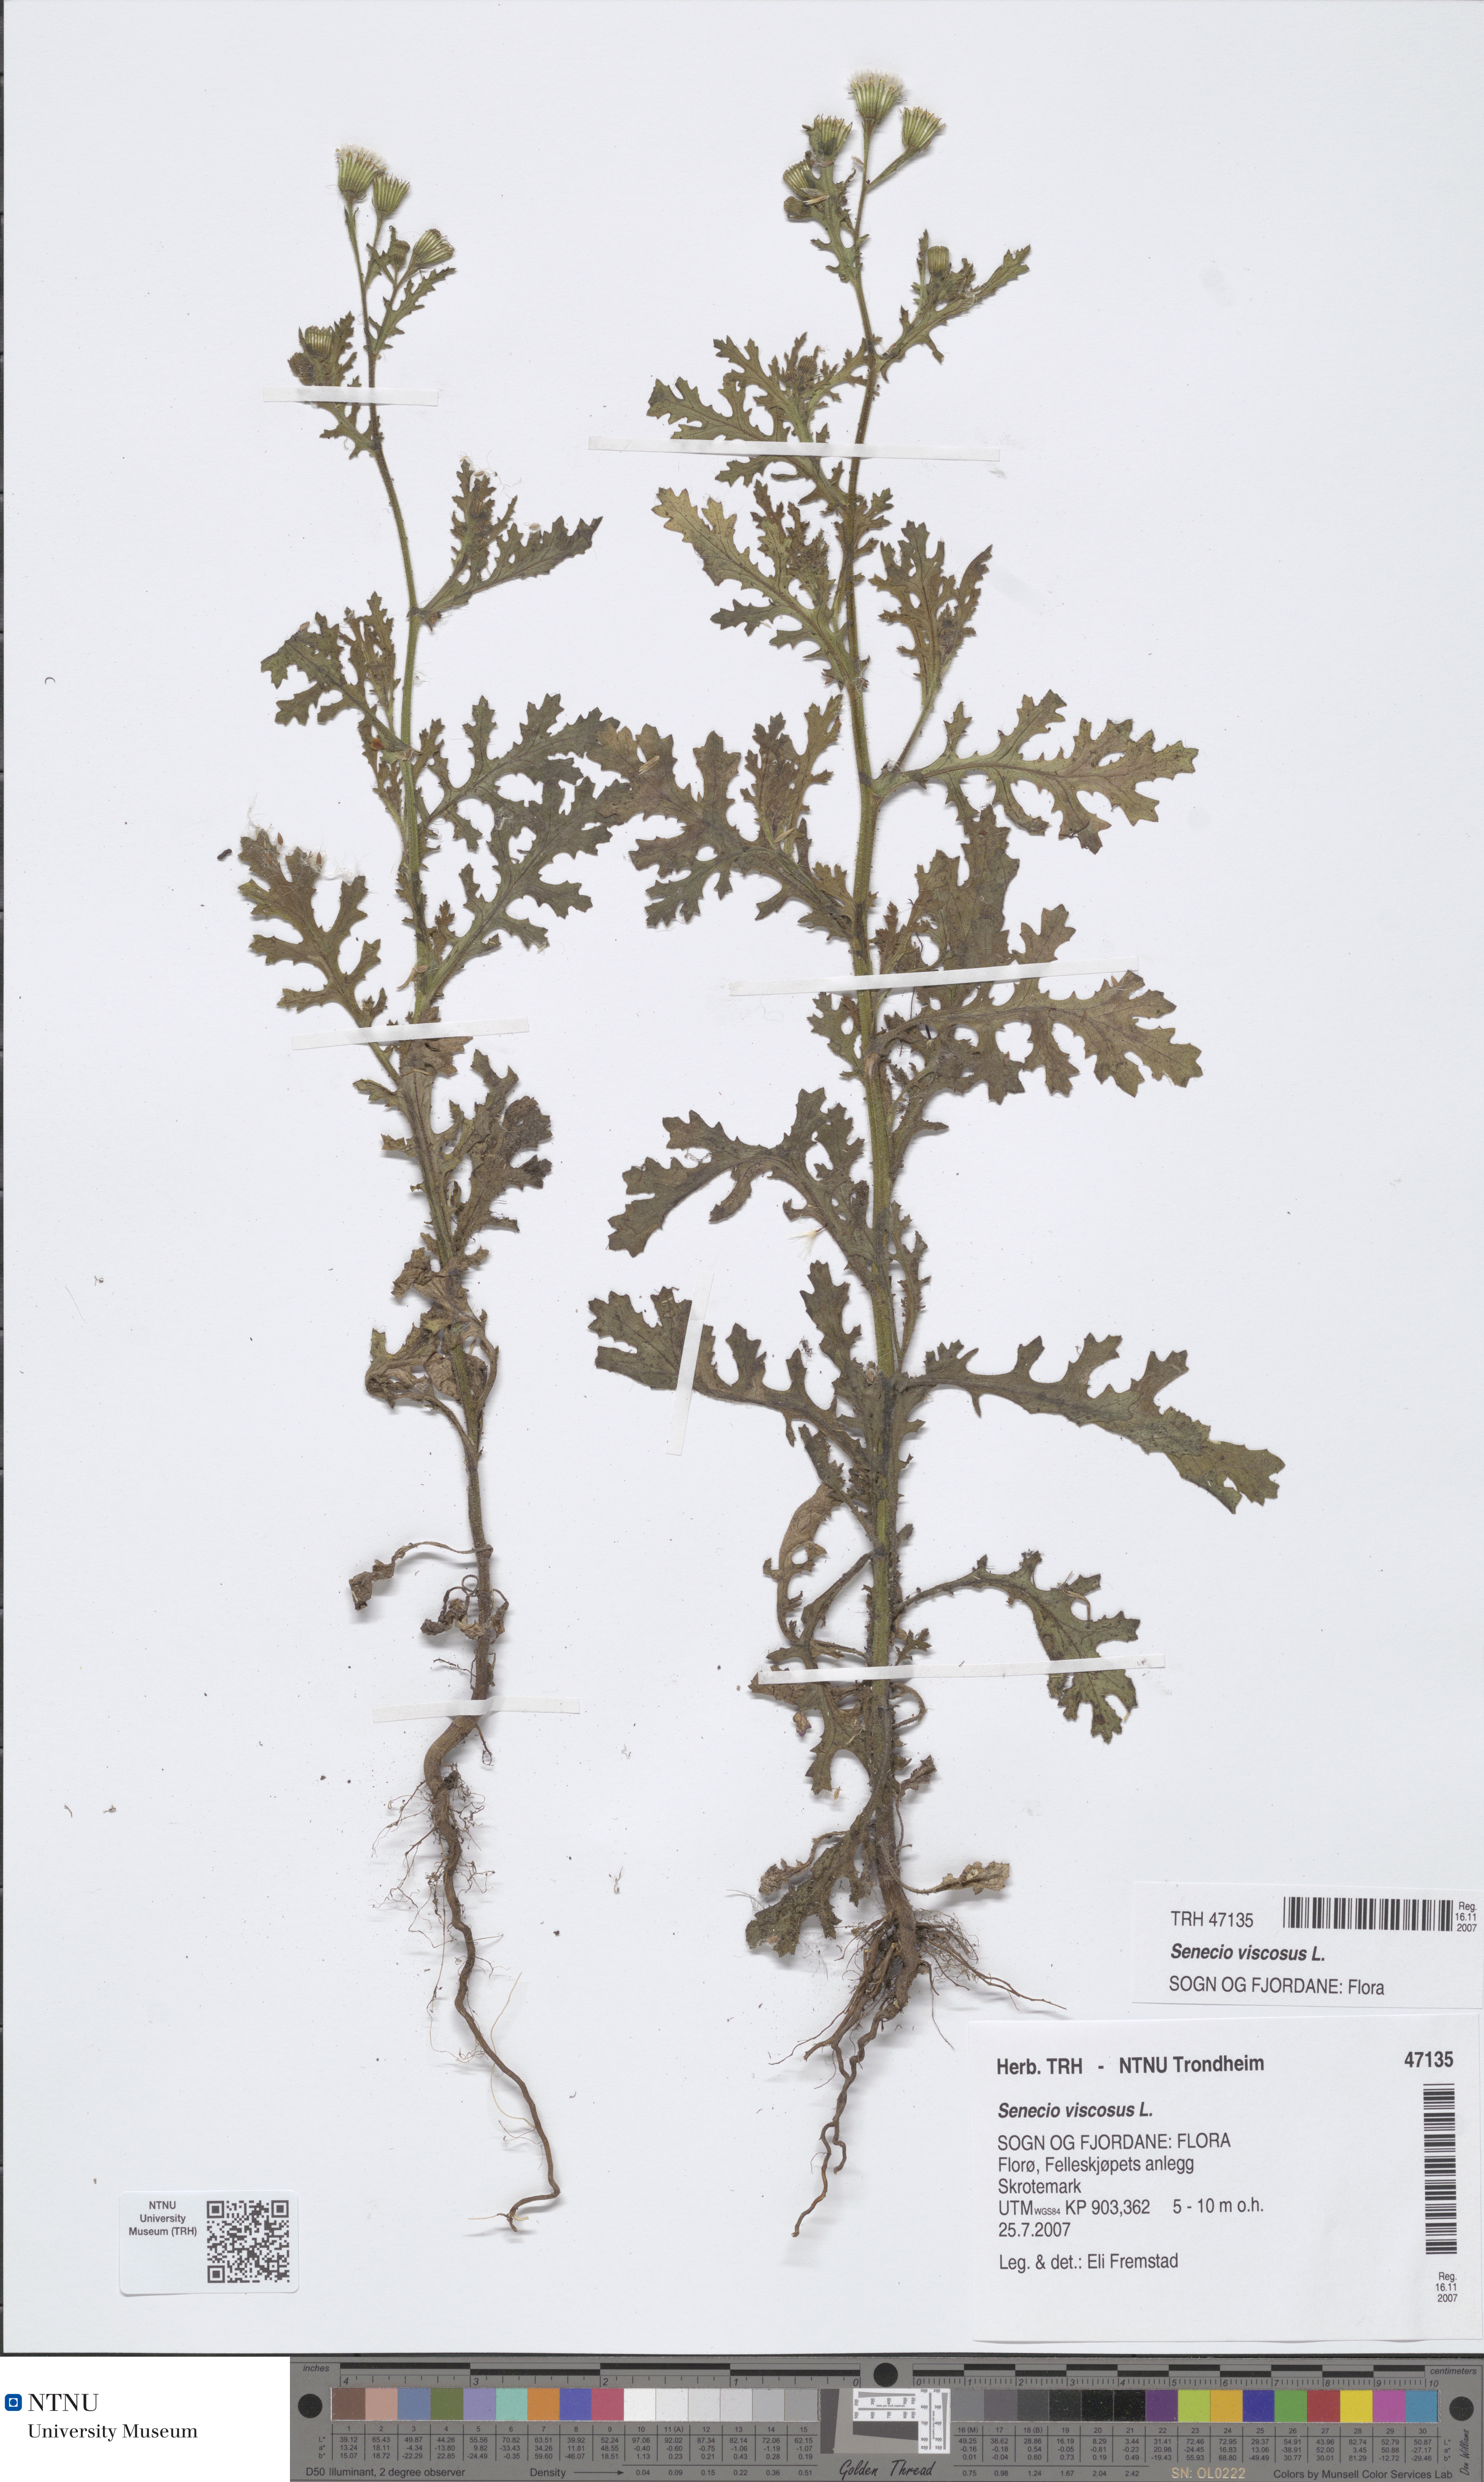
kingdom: Plantae
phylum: Tracheophyta
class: Magnoliopsida
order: Asterales
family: Asteraceae
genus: Senecio
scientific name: Senecio viscosus
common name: Sticky groundsel
